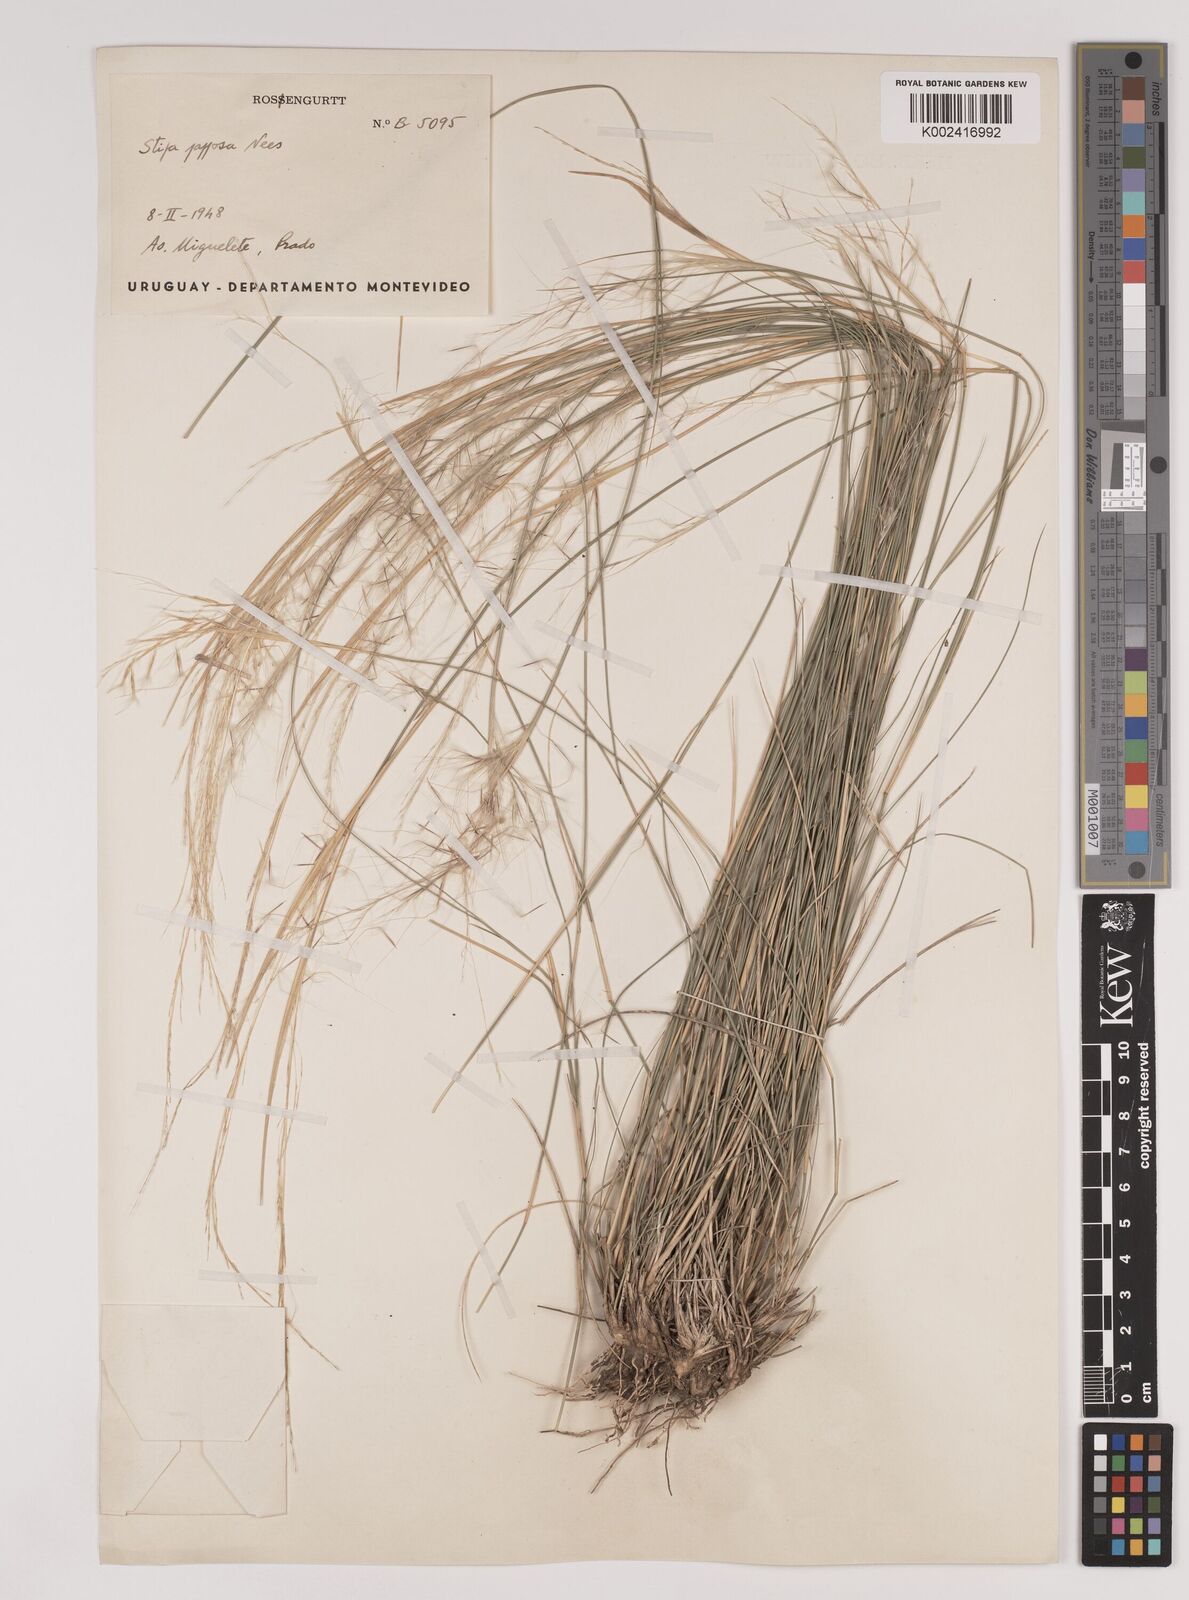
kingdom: Plantae
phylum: Tracheophyta
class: Liliopsida
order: Poales
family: Poaceae
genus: Jarava
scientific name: Jarava plumosa
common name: South american rice grass
